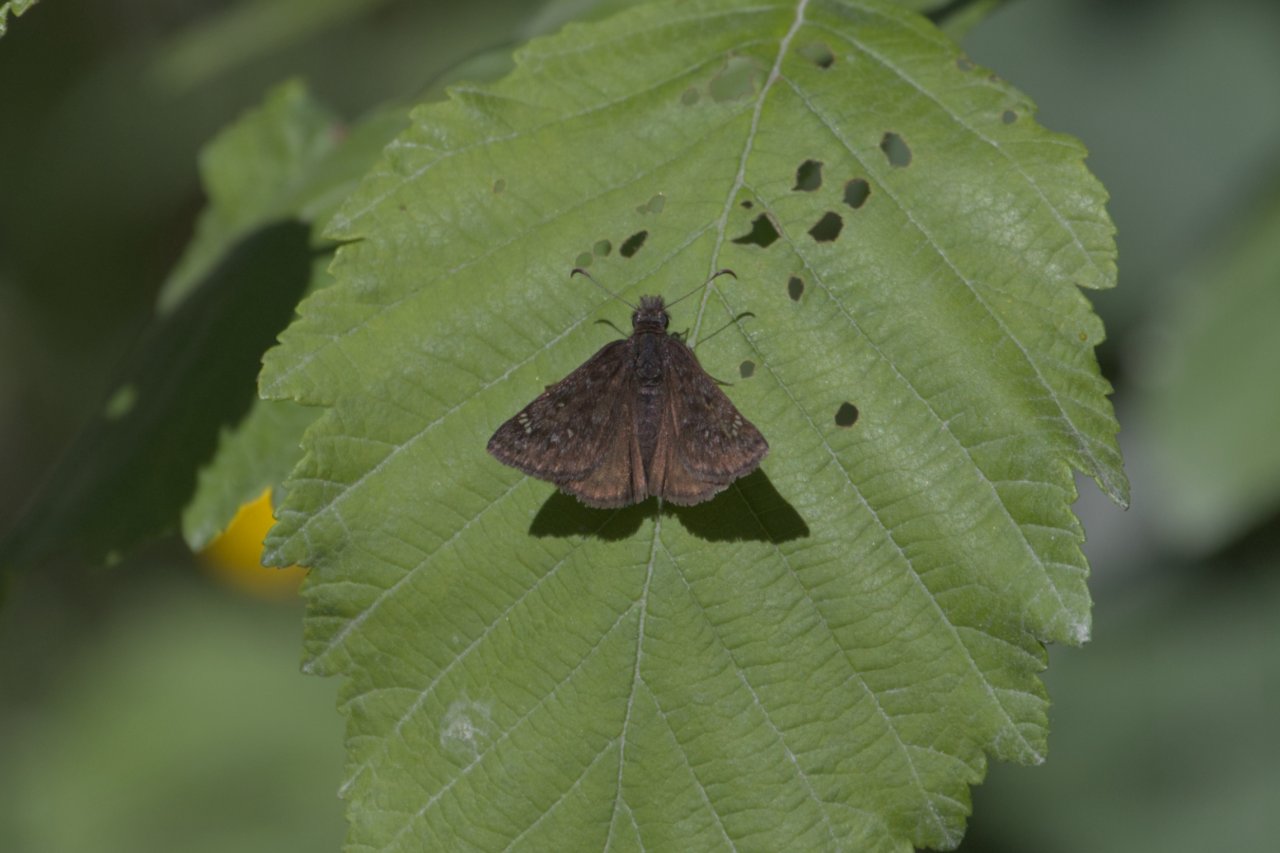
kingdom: Animalia
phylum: Arthropoda
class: Insecta
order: Lepidoptera
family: Hesperiidae
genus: Gesta
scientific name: Gesta
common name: Persius Duskywing
